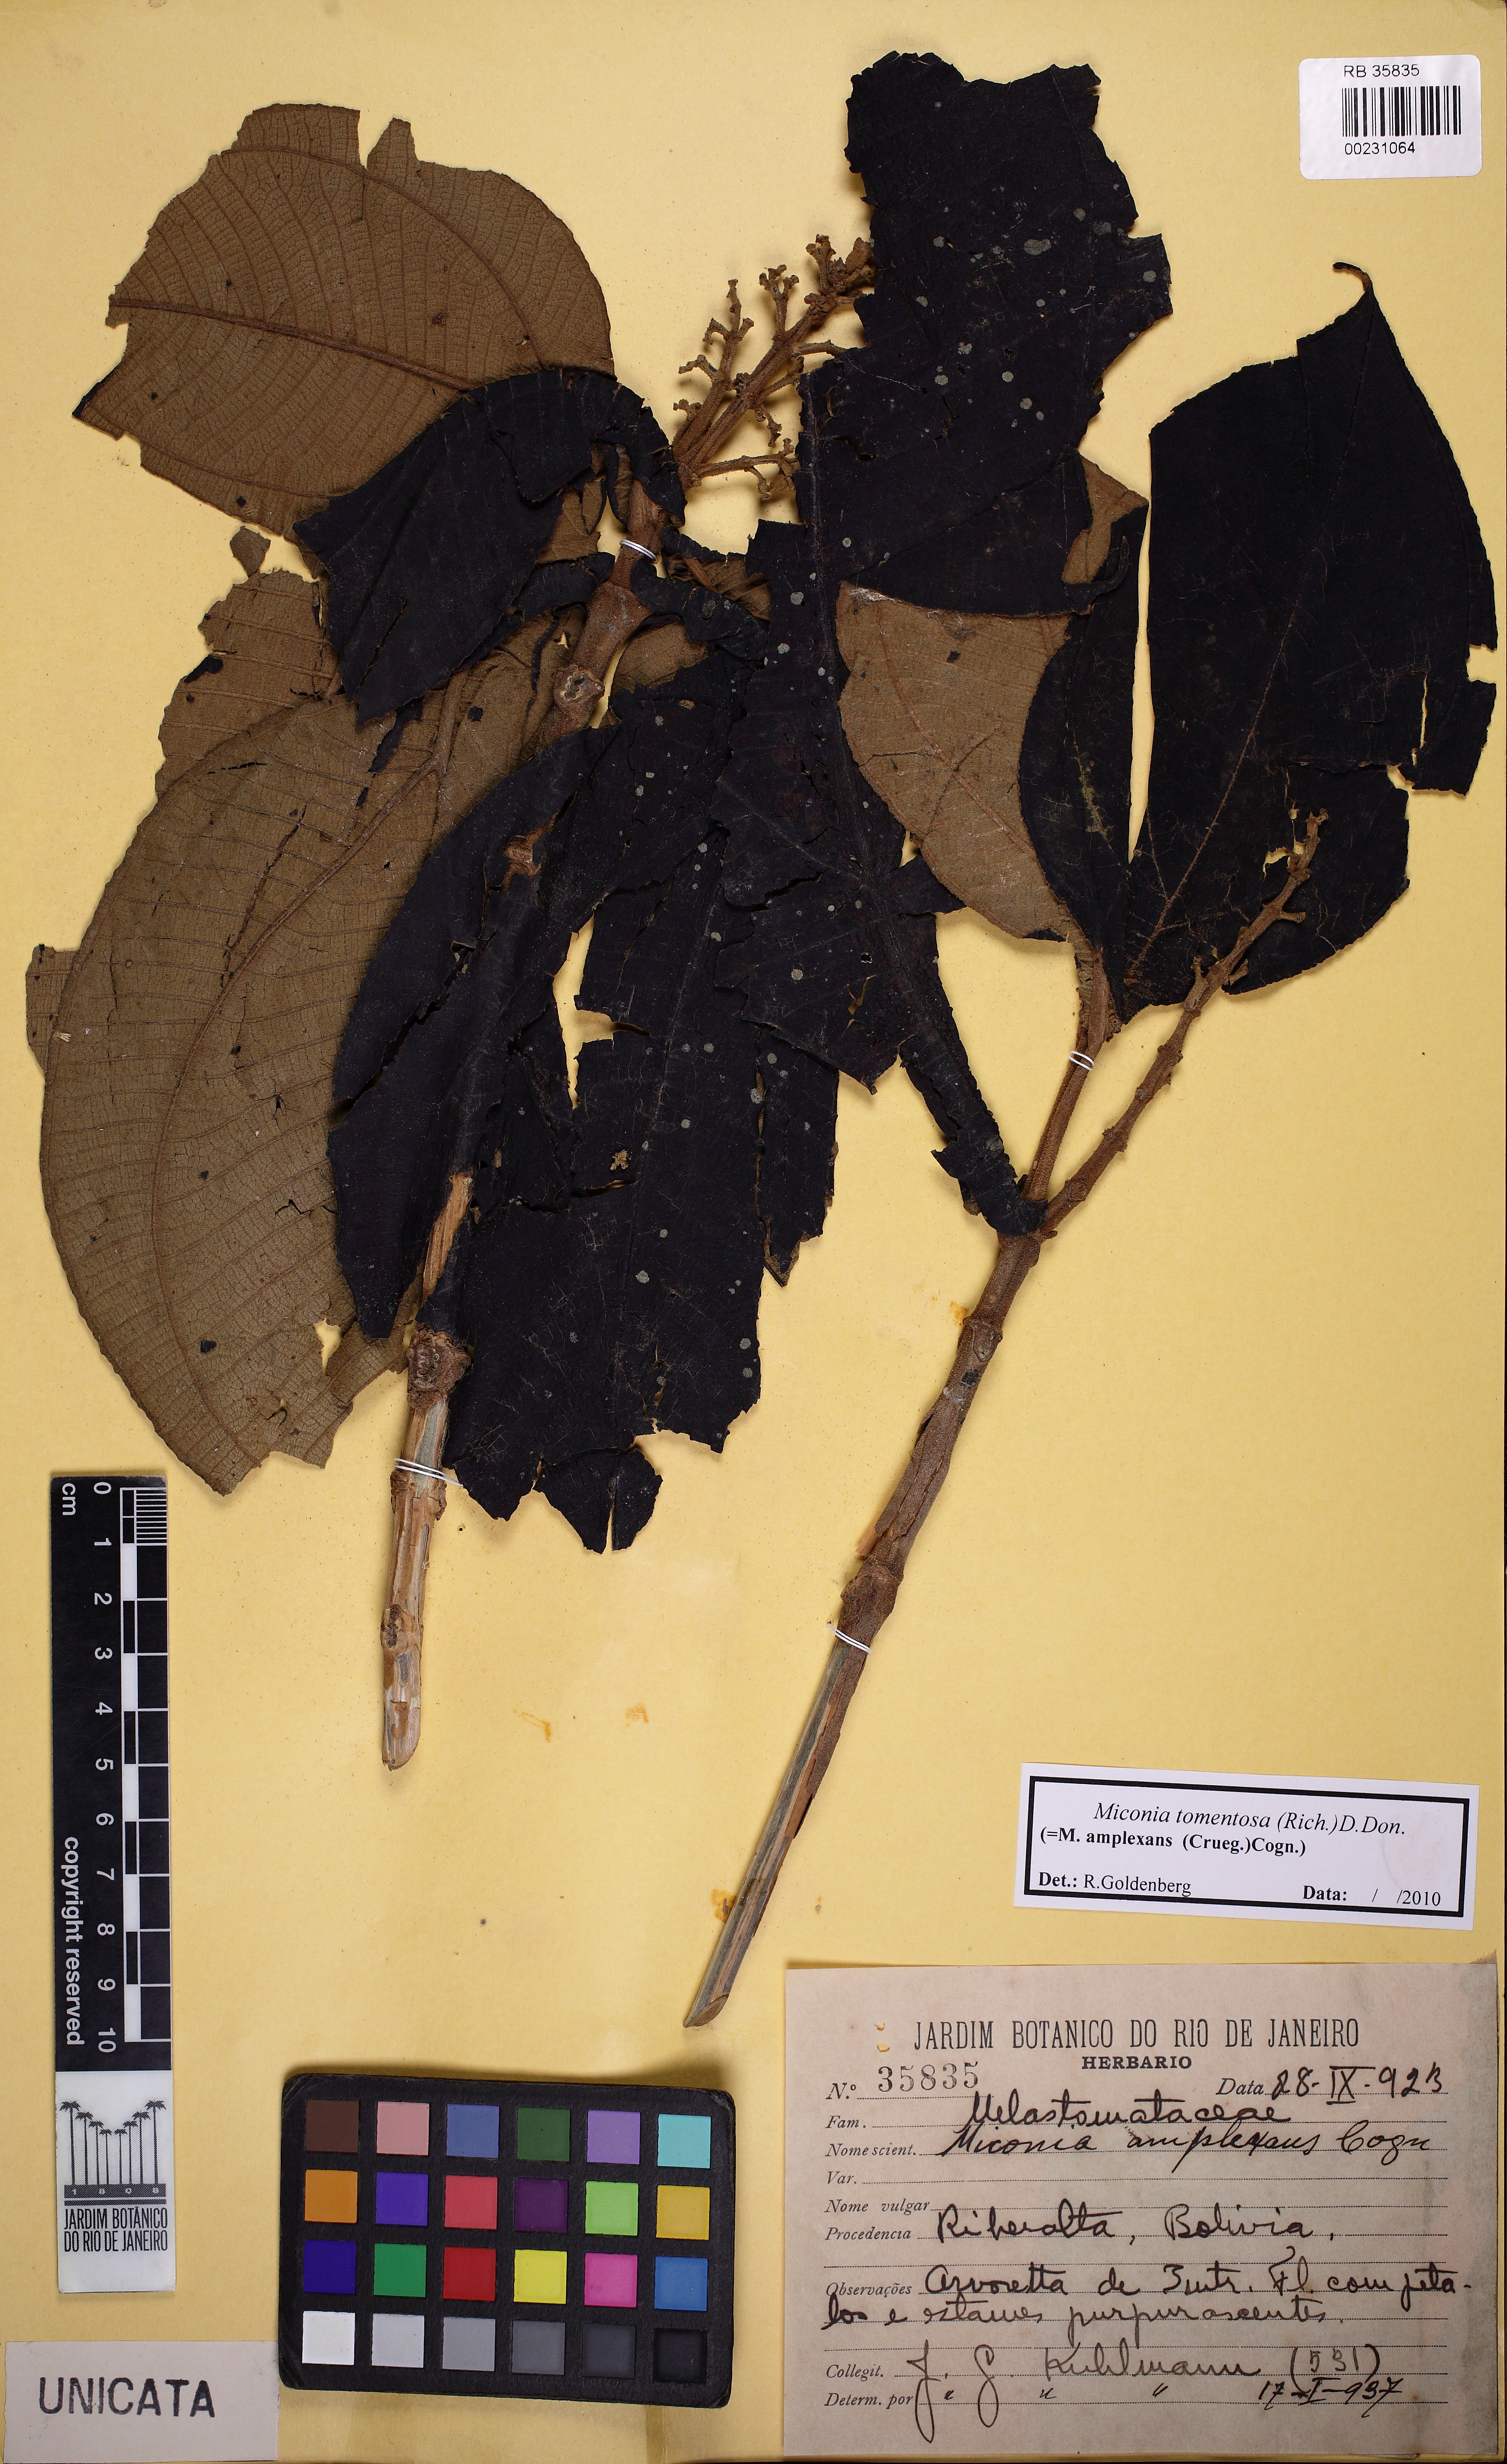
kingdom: Plantae
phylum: Tracheophyta
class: Magnoliopsida
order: Myrtales
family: Melastomataceae
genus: Miconia
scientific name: Miconia tomentosa
